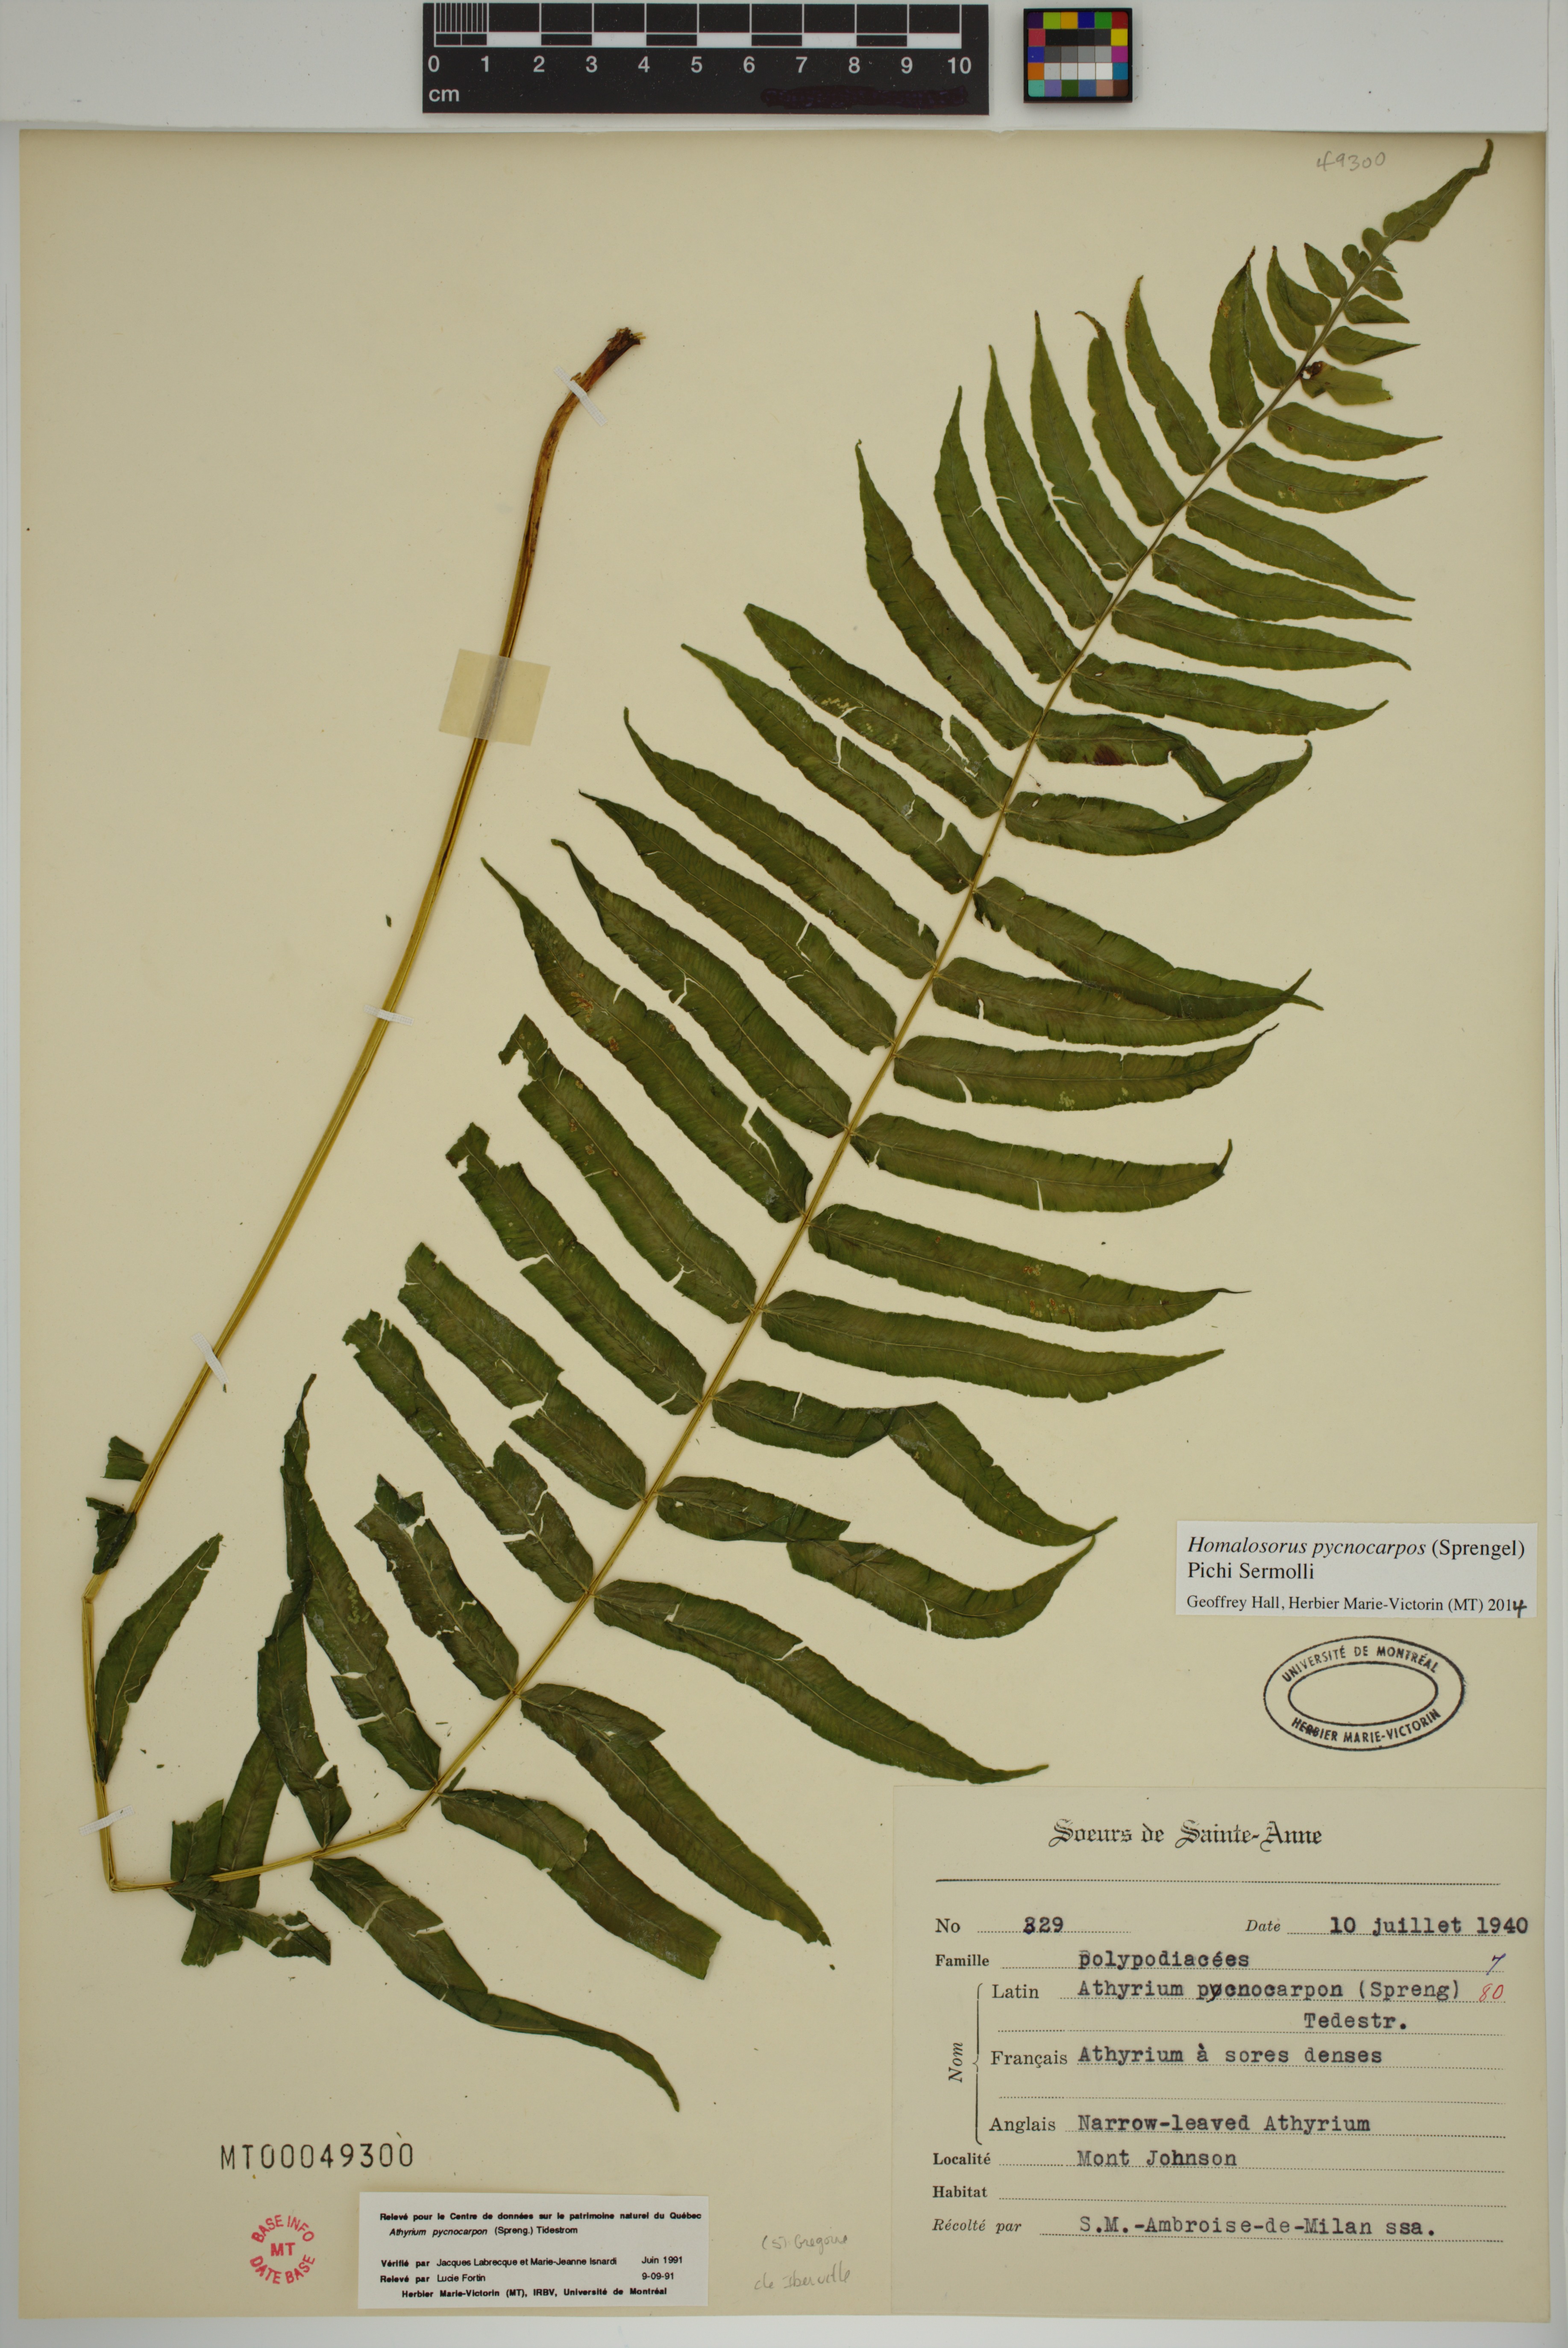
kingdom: Plantae
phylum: Tracheophyta
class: Polypodiopsida
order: Polypodiales
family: Diplaziopsidaceae
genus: Homalosorus
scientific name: Homalosorus pycnocarpos
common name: Glade fern
